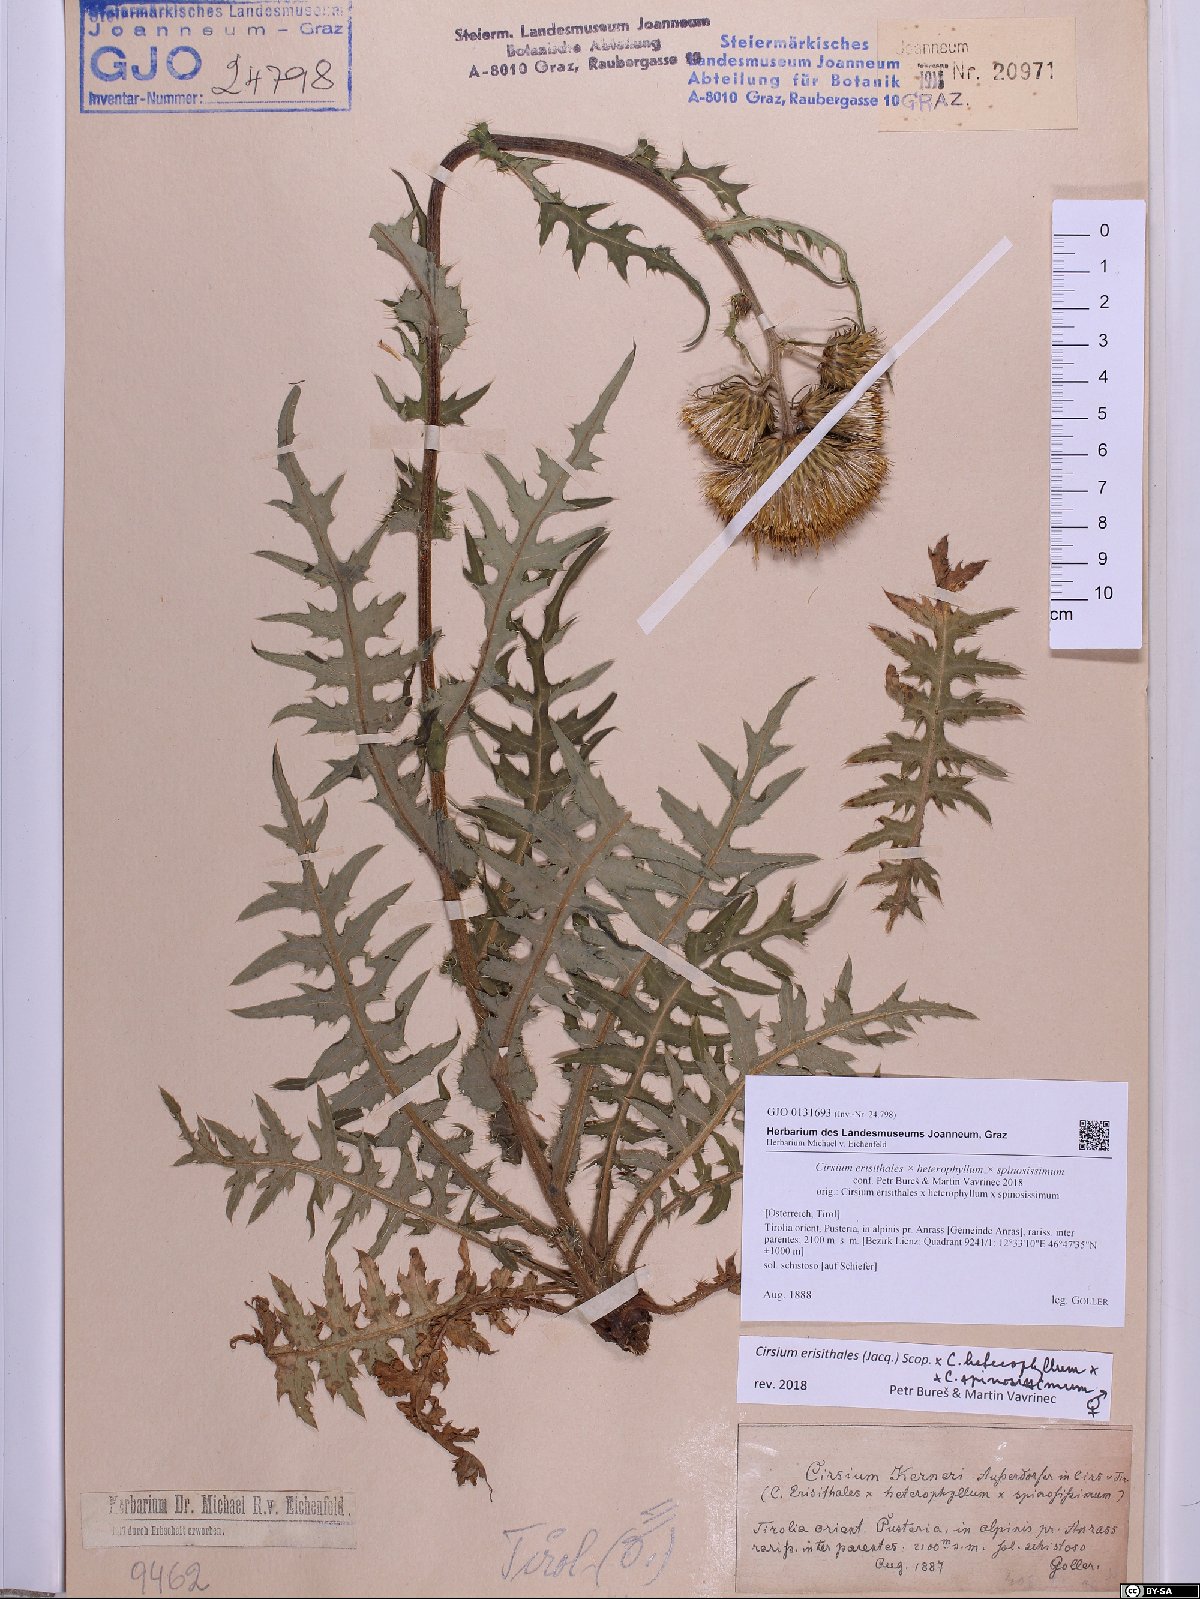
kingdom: Plantae
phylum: Tracheophyta
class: Magnoliopsida
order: Asterales
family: Asteraceae
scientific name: Asteraceae
